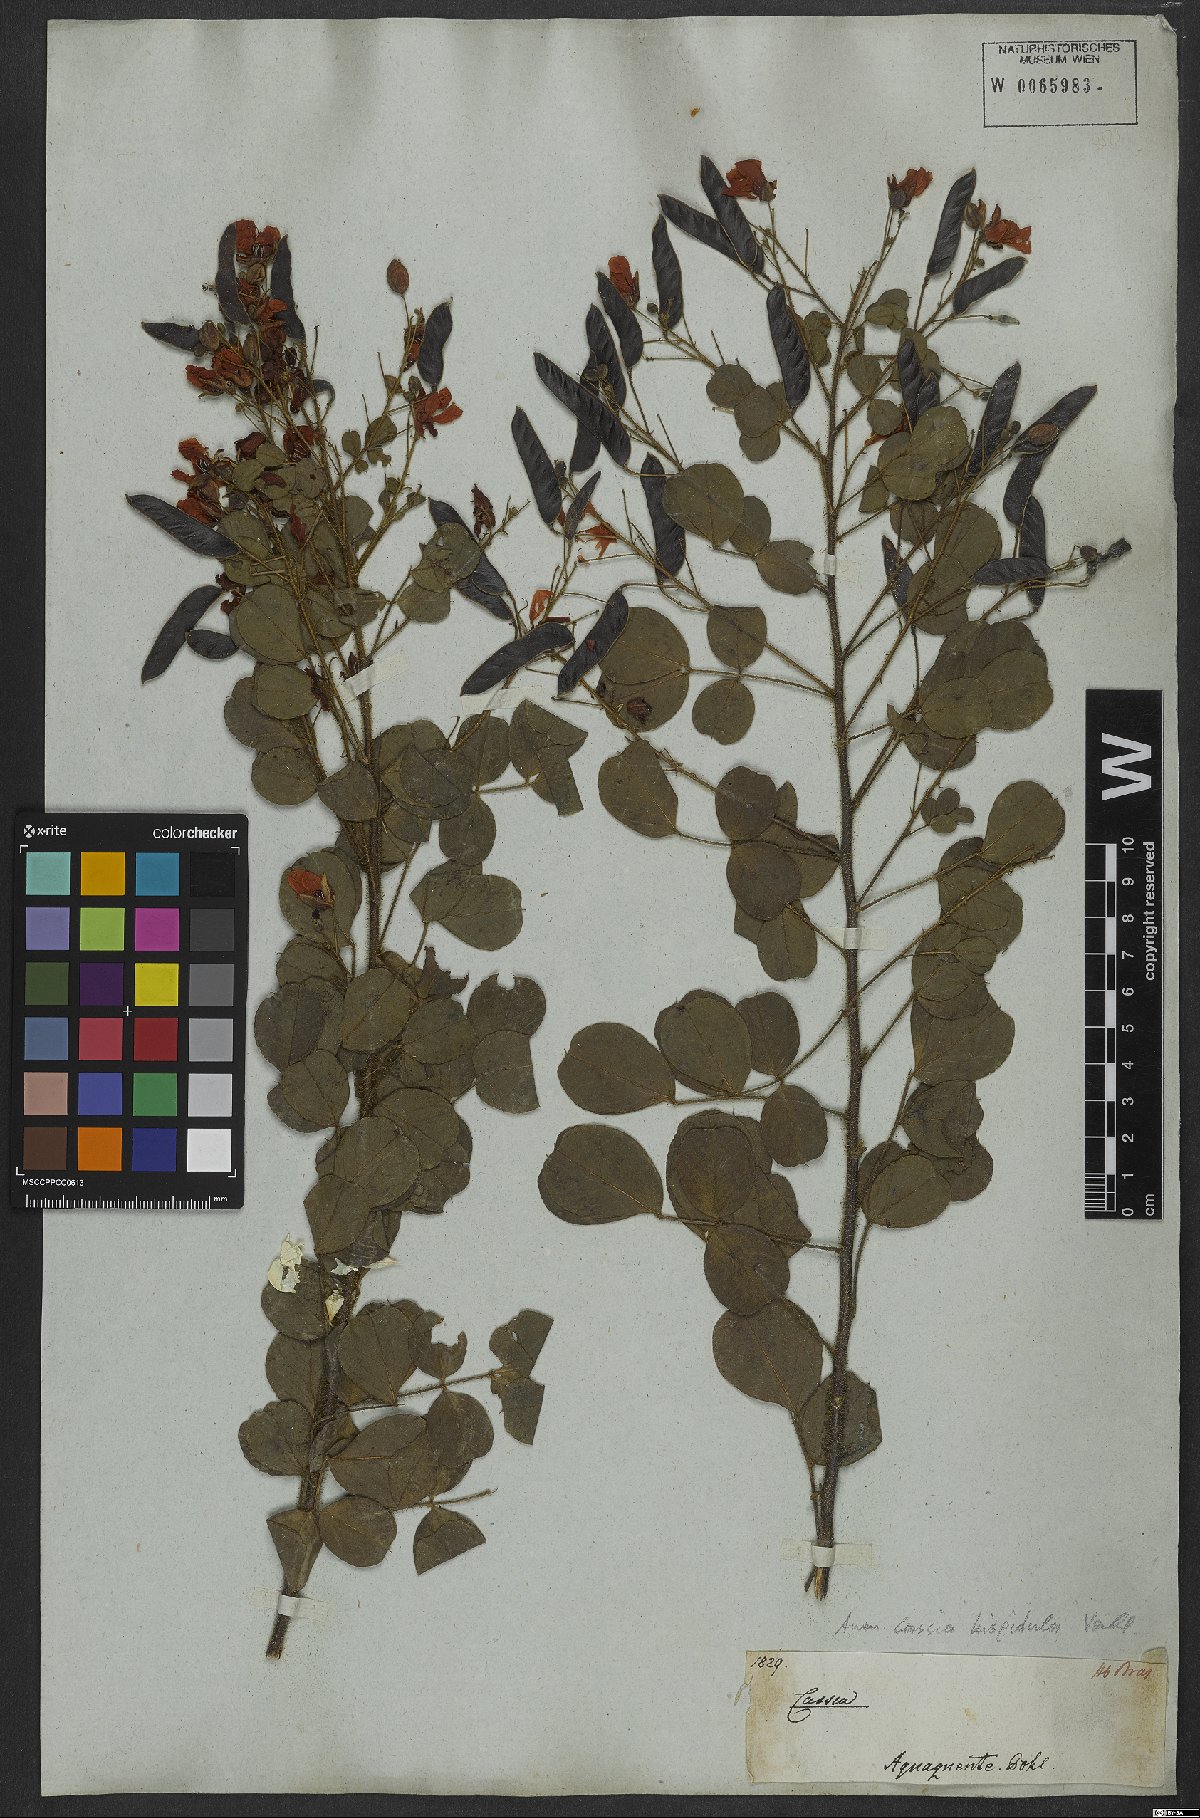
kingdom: Plantae
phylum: Tracheophyta
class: Magnoliopsida
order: Fabales
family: Fabaceae
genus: Chamaecrista
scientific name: Chamaecrista hispidula
